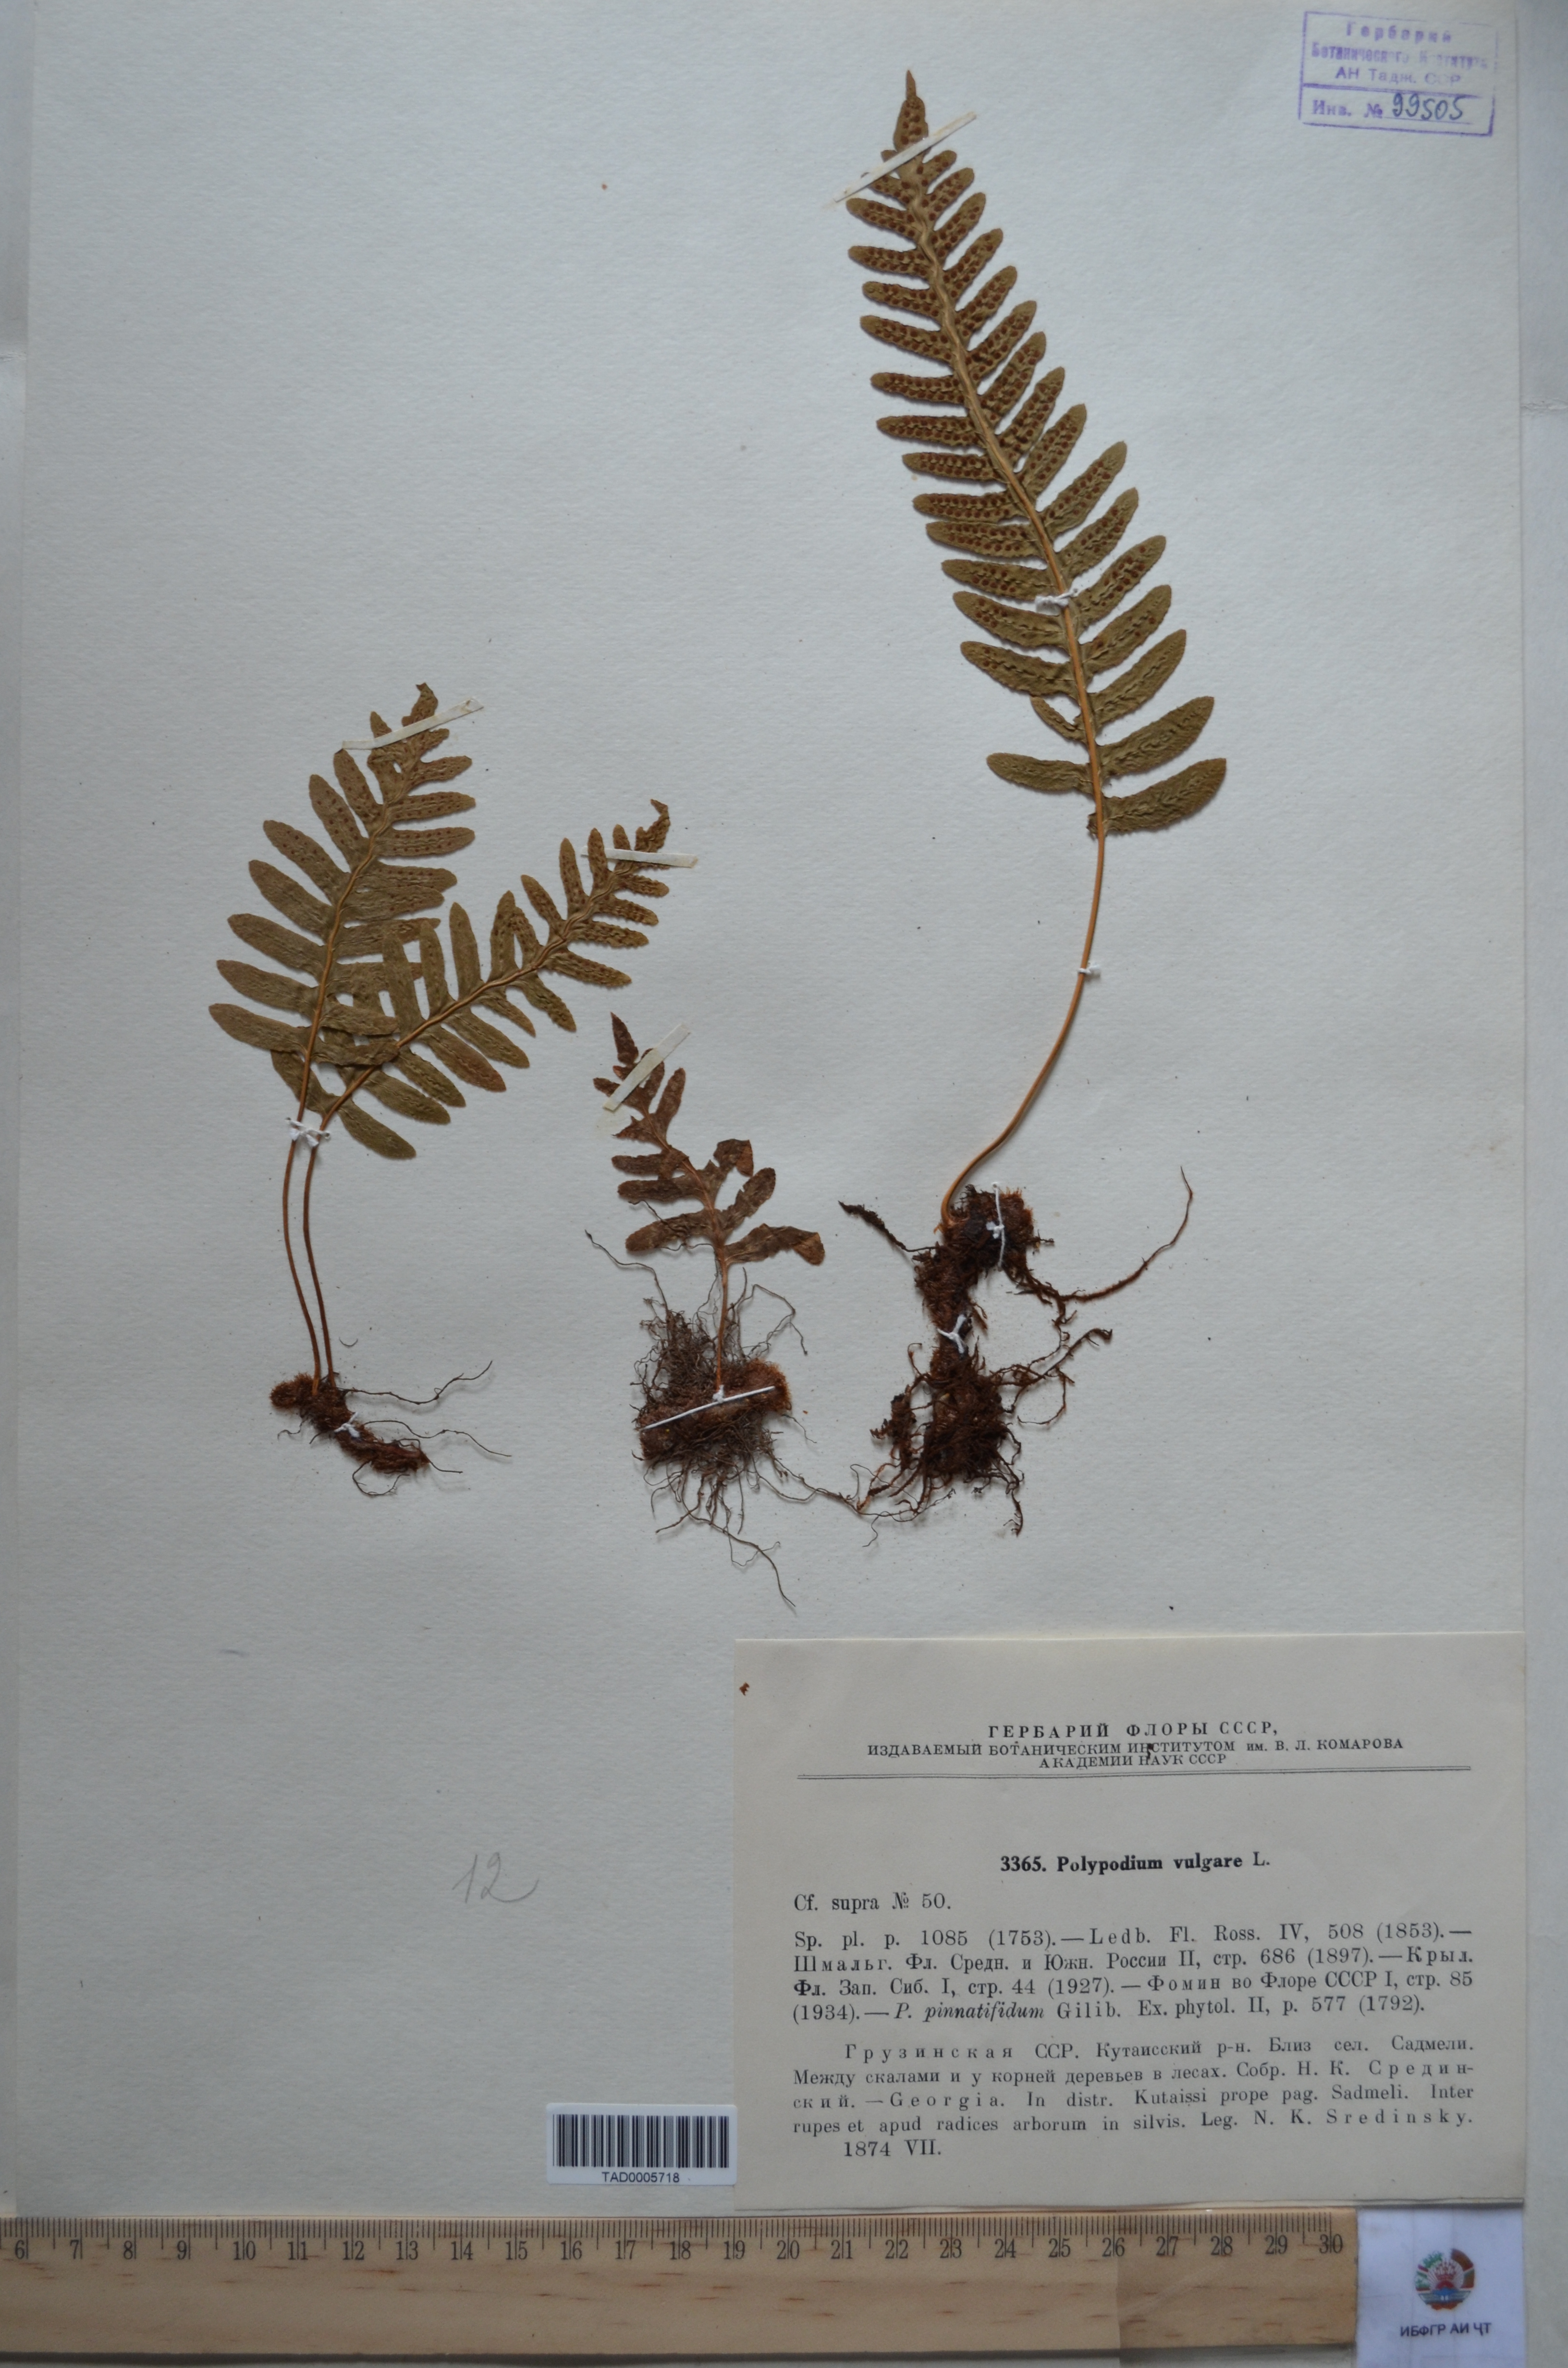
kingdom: Plantae
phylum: Tracheophyta
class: Polypodiopsida
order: Polypodiales
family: Polypodiaceae
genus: Polypodium
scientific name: Polypodium vulgare
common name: Common polypody
